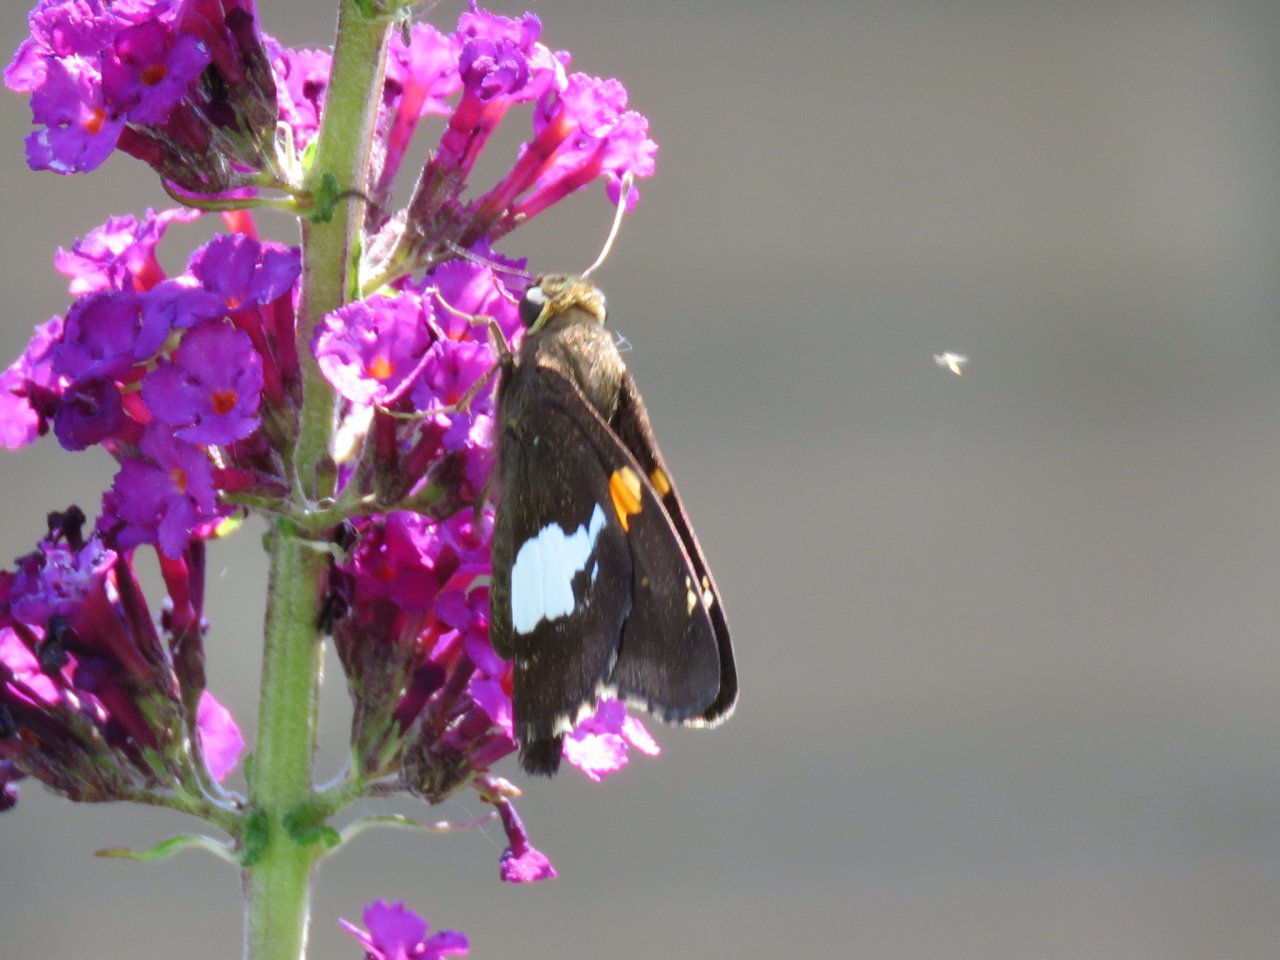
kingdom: Animalia
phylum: Arthropoda
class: Insecta
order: Lepidoptera
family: Hesperiidae
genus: Epargyreus
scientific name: Epargyreus clarus
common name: Silver-spotted Skipper
